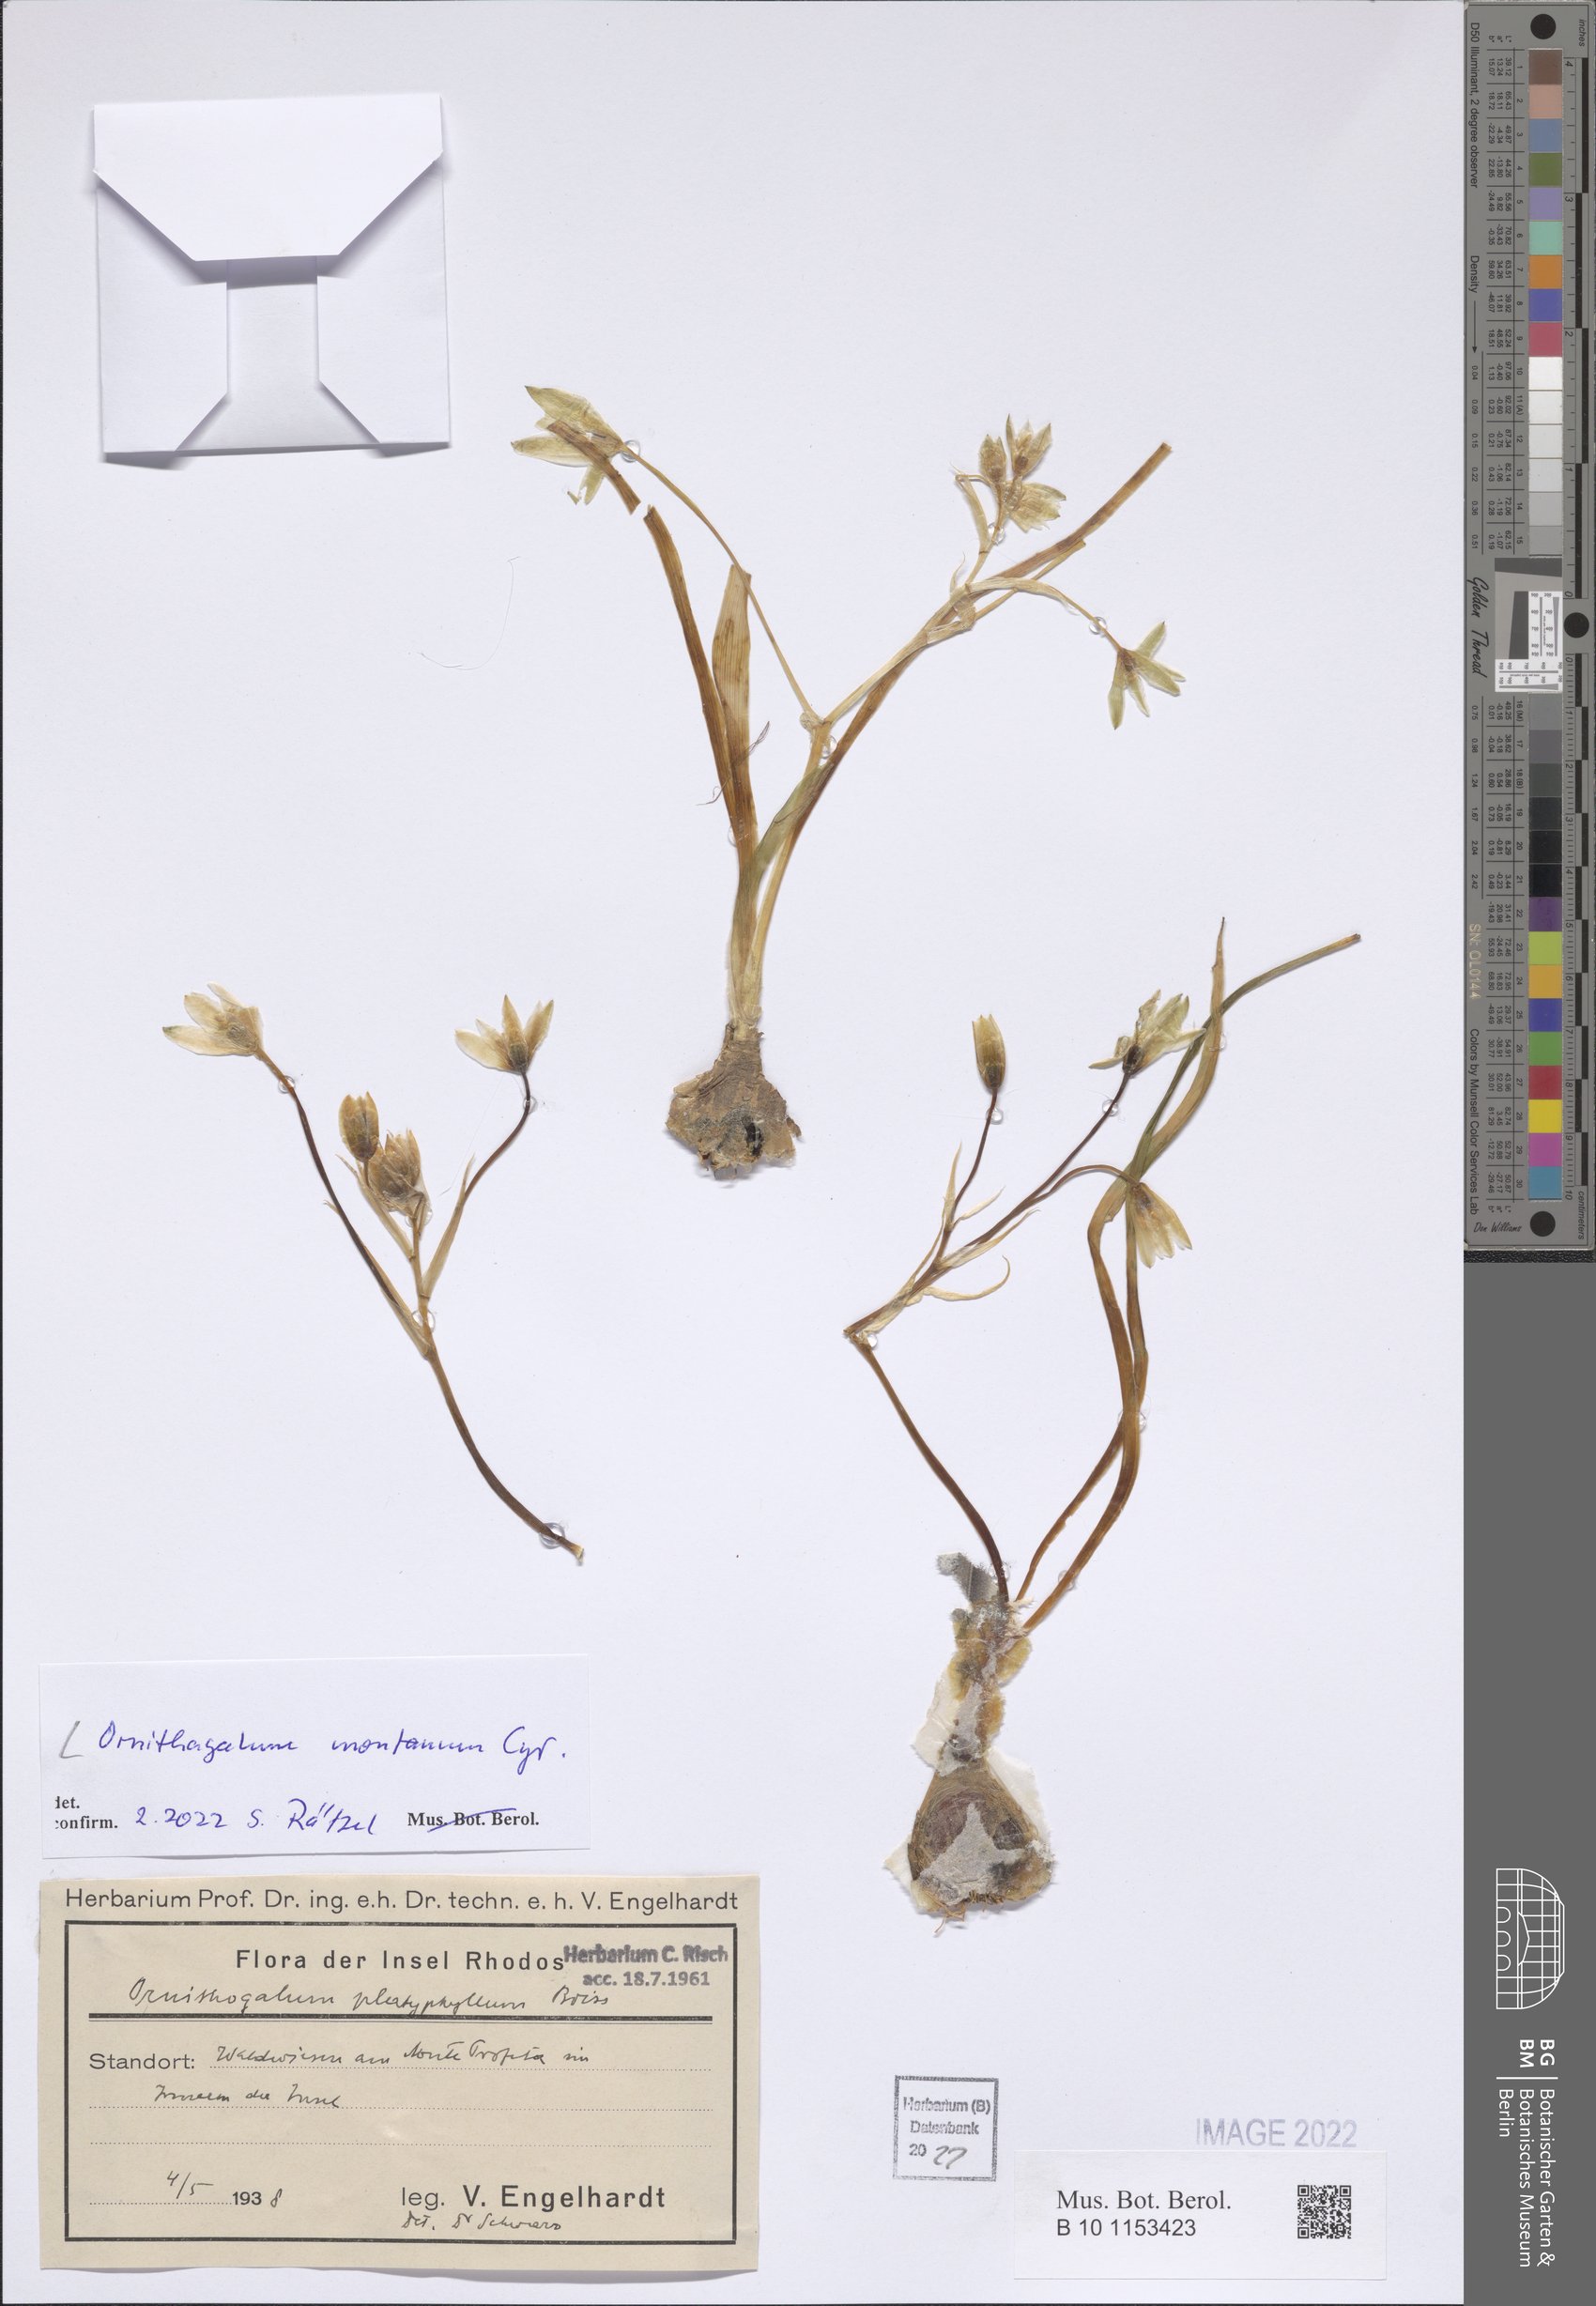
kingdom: Plantae
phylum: Tracheophyta
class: Liliopsida
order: Asparagales
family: Asparagaceae
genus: Ornithogalum
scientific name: Ornithogalum montanum
